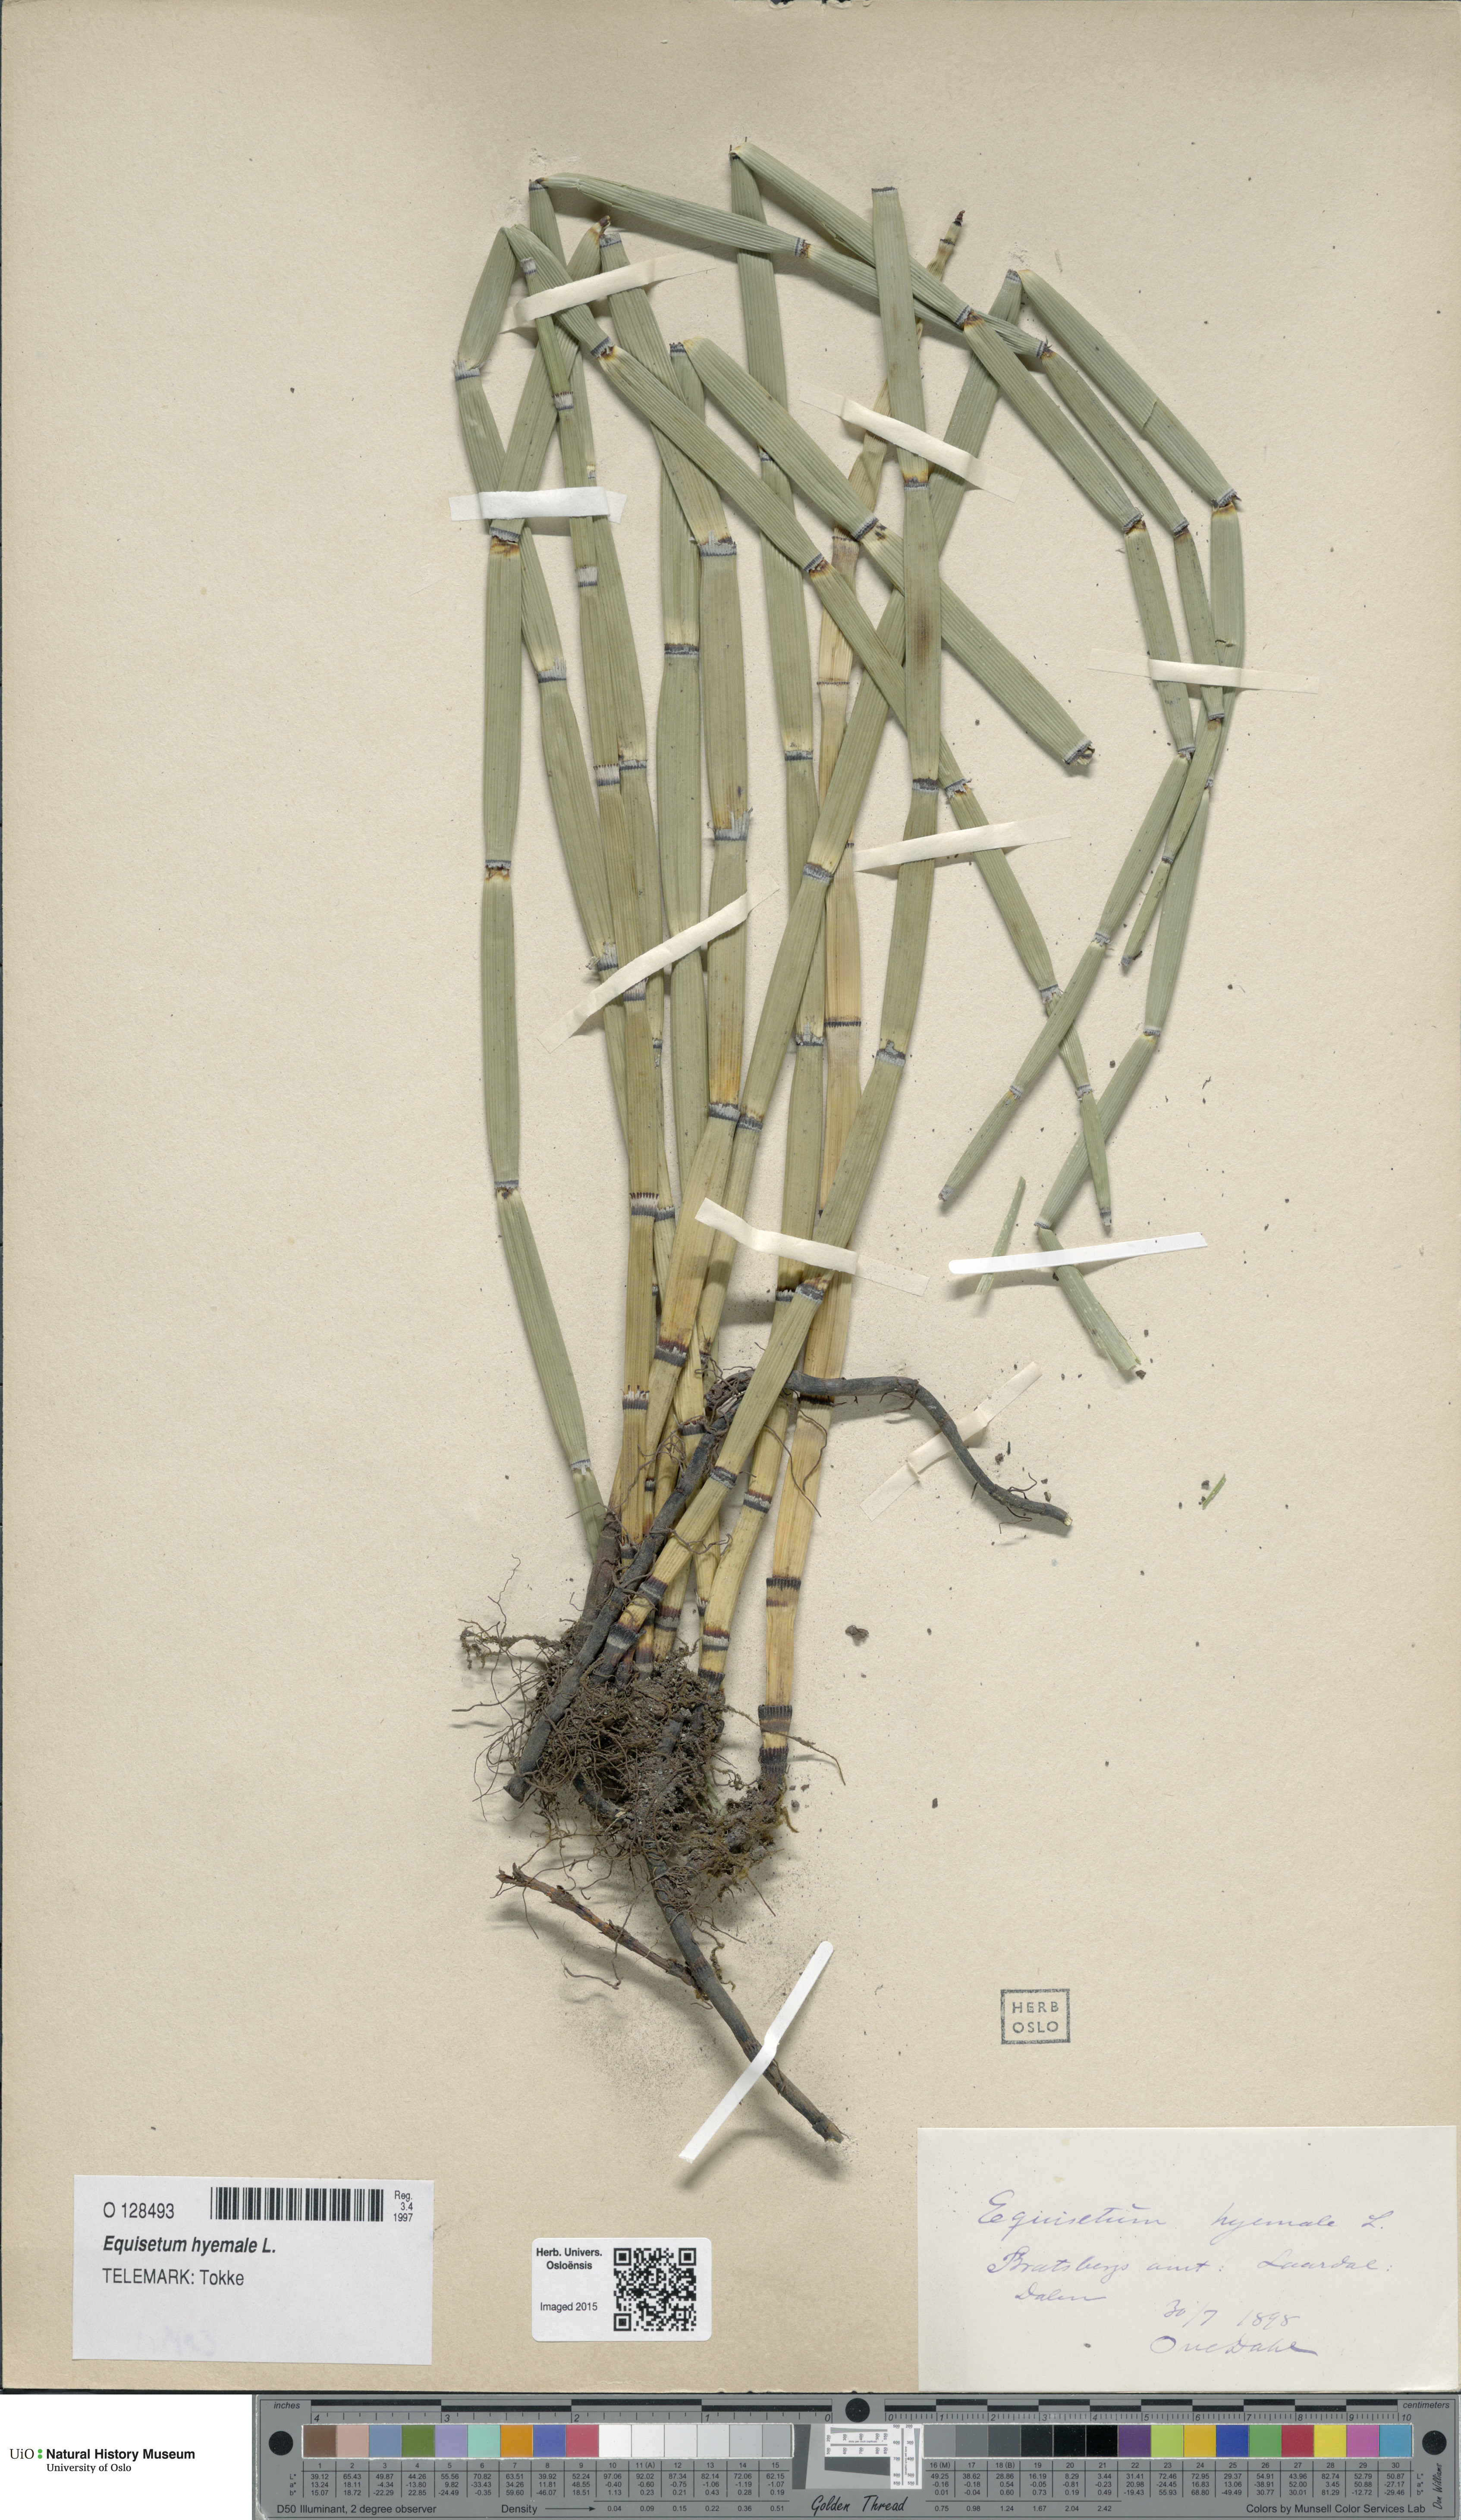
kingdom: Plantae
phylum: Tracheophyta
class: Polypodiopsida
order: Equisetales
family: Equisetaceae
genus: Equisetum
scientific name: Equisetum hyemale
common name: Rough horsetail
